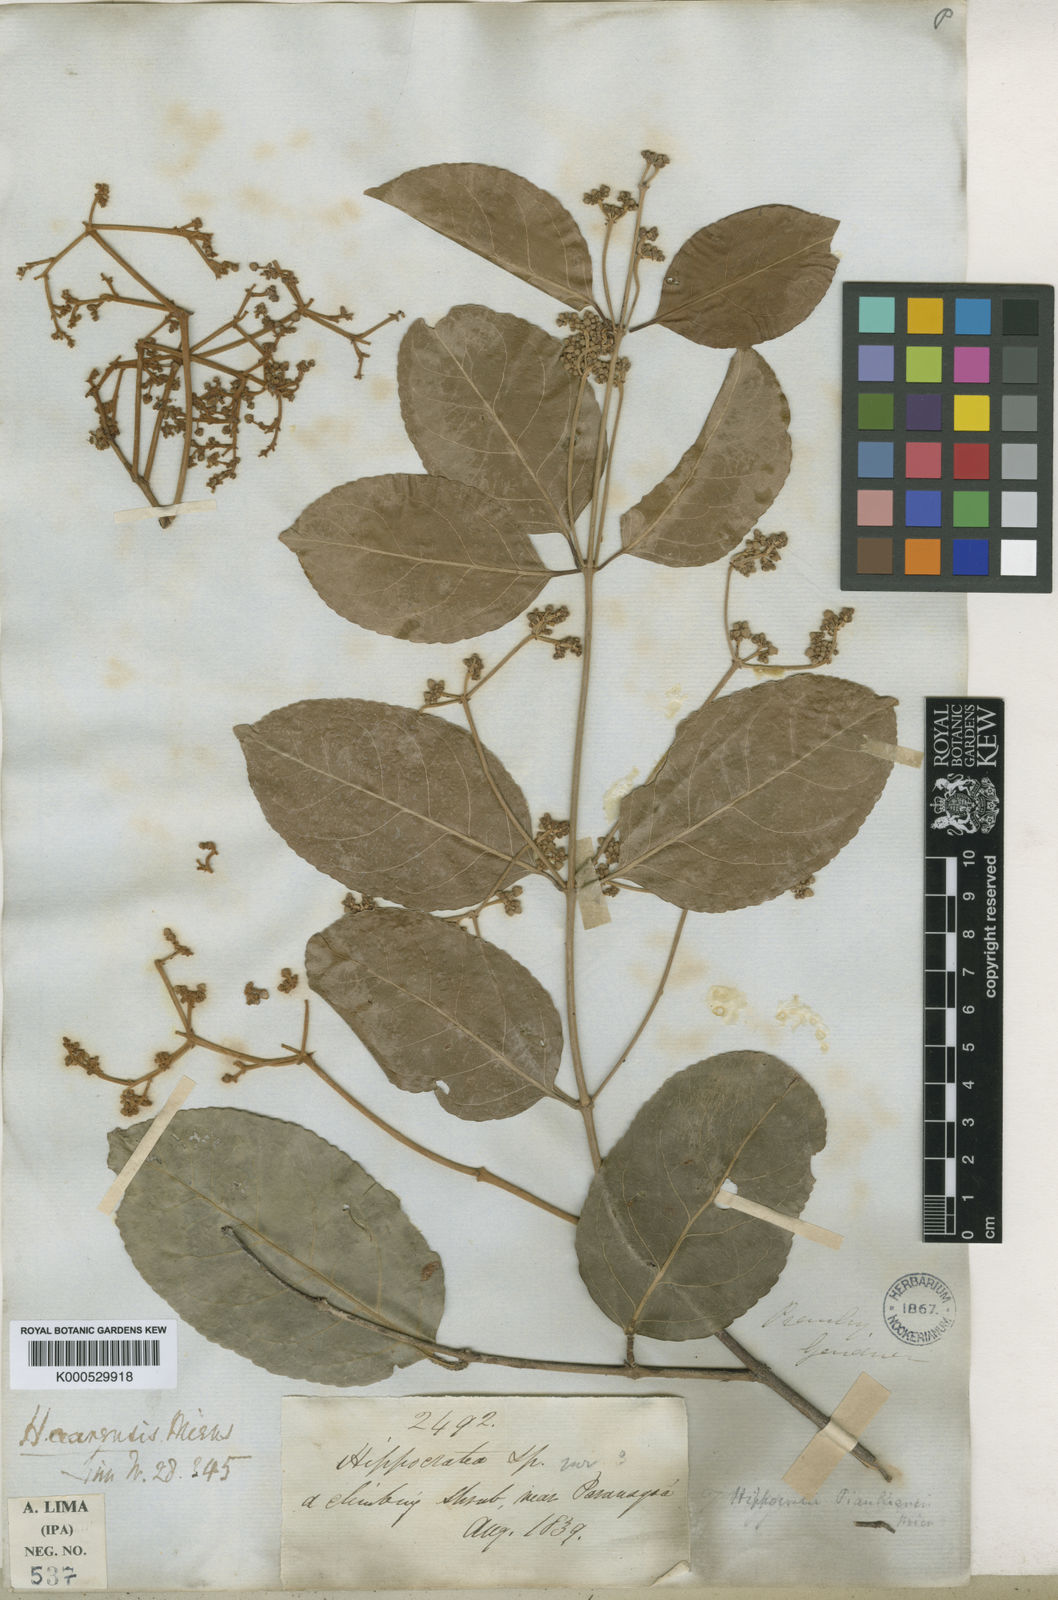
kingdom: Plantae
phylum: Tracheophyta
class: Magnoliopsida
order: Celastrales
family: Celastraceae
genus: Hippocratea
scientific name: Hippocratea volubilis
